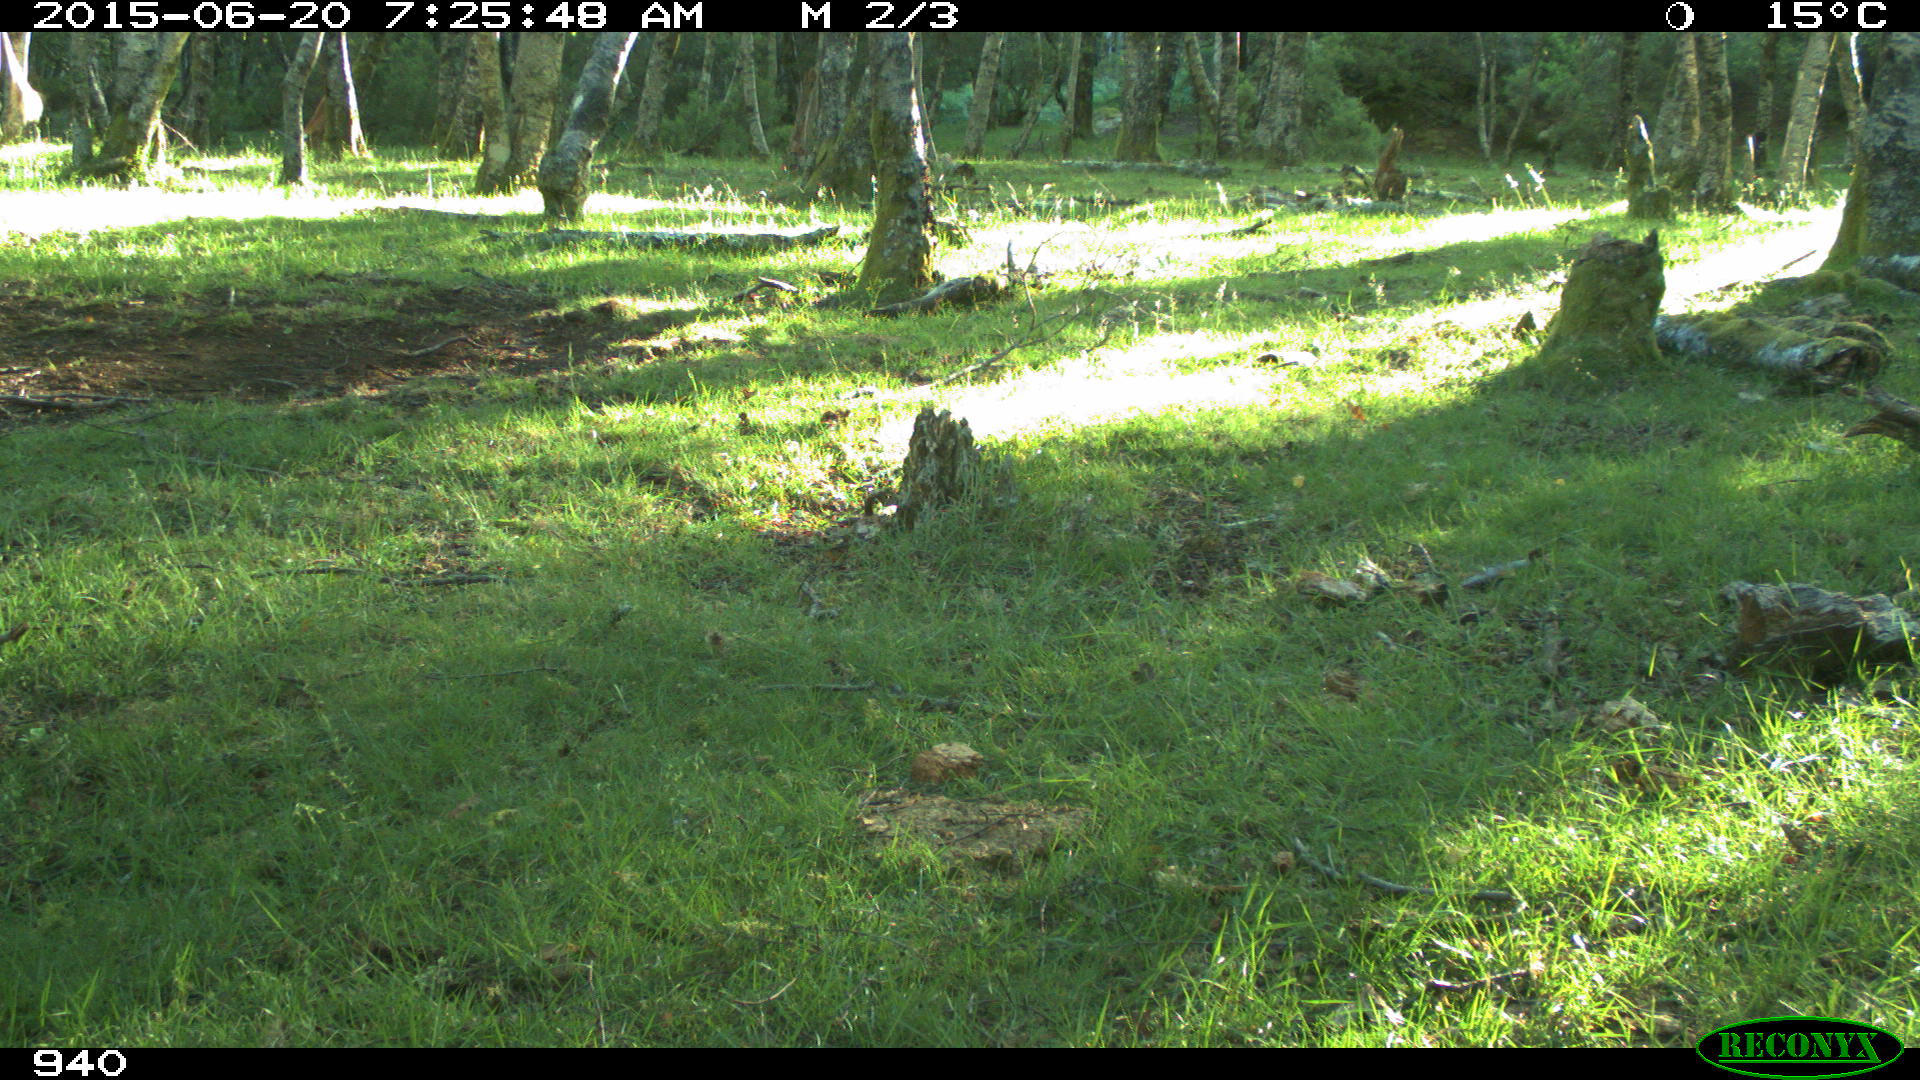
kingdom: Animalia
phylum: Chordata
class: Mammalia
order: Perissodactyla
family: Equidae
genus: Equus
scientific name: Equus caballus
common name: Horse
